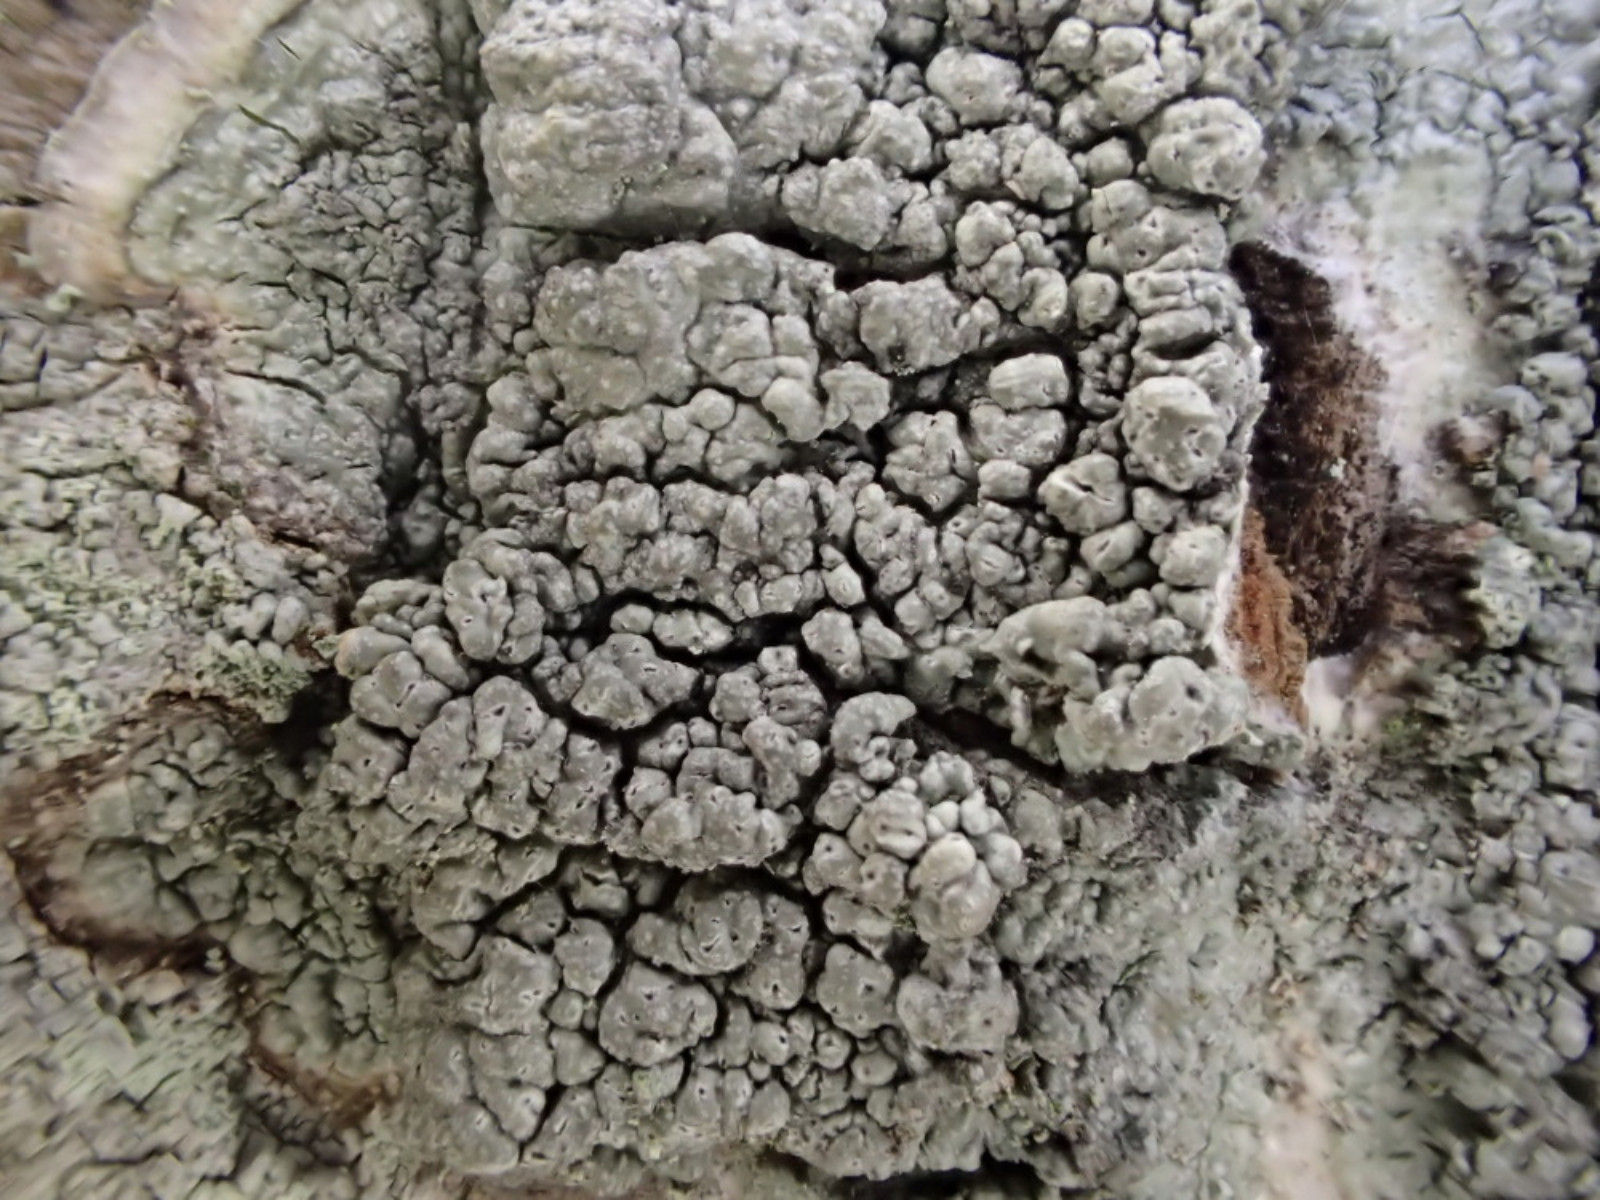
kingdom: Fungi
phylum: Ascomycota
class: Lecanoromycetes
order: Pertusariales
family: Pertusariaceae
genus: Pertusaria
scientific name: Pertusaria pertusa
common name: almindelig prikvortelav
